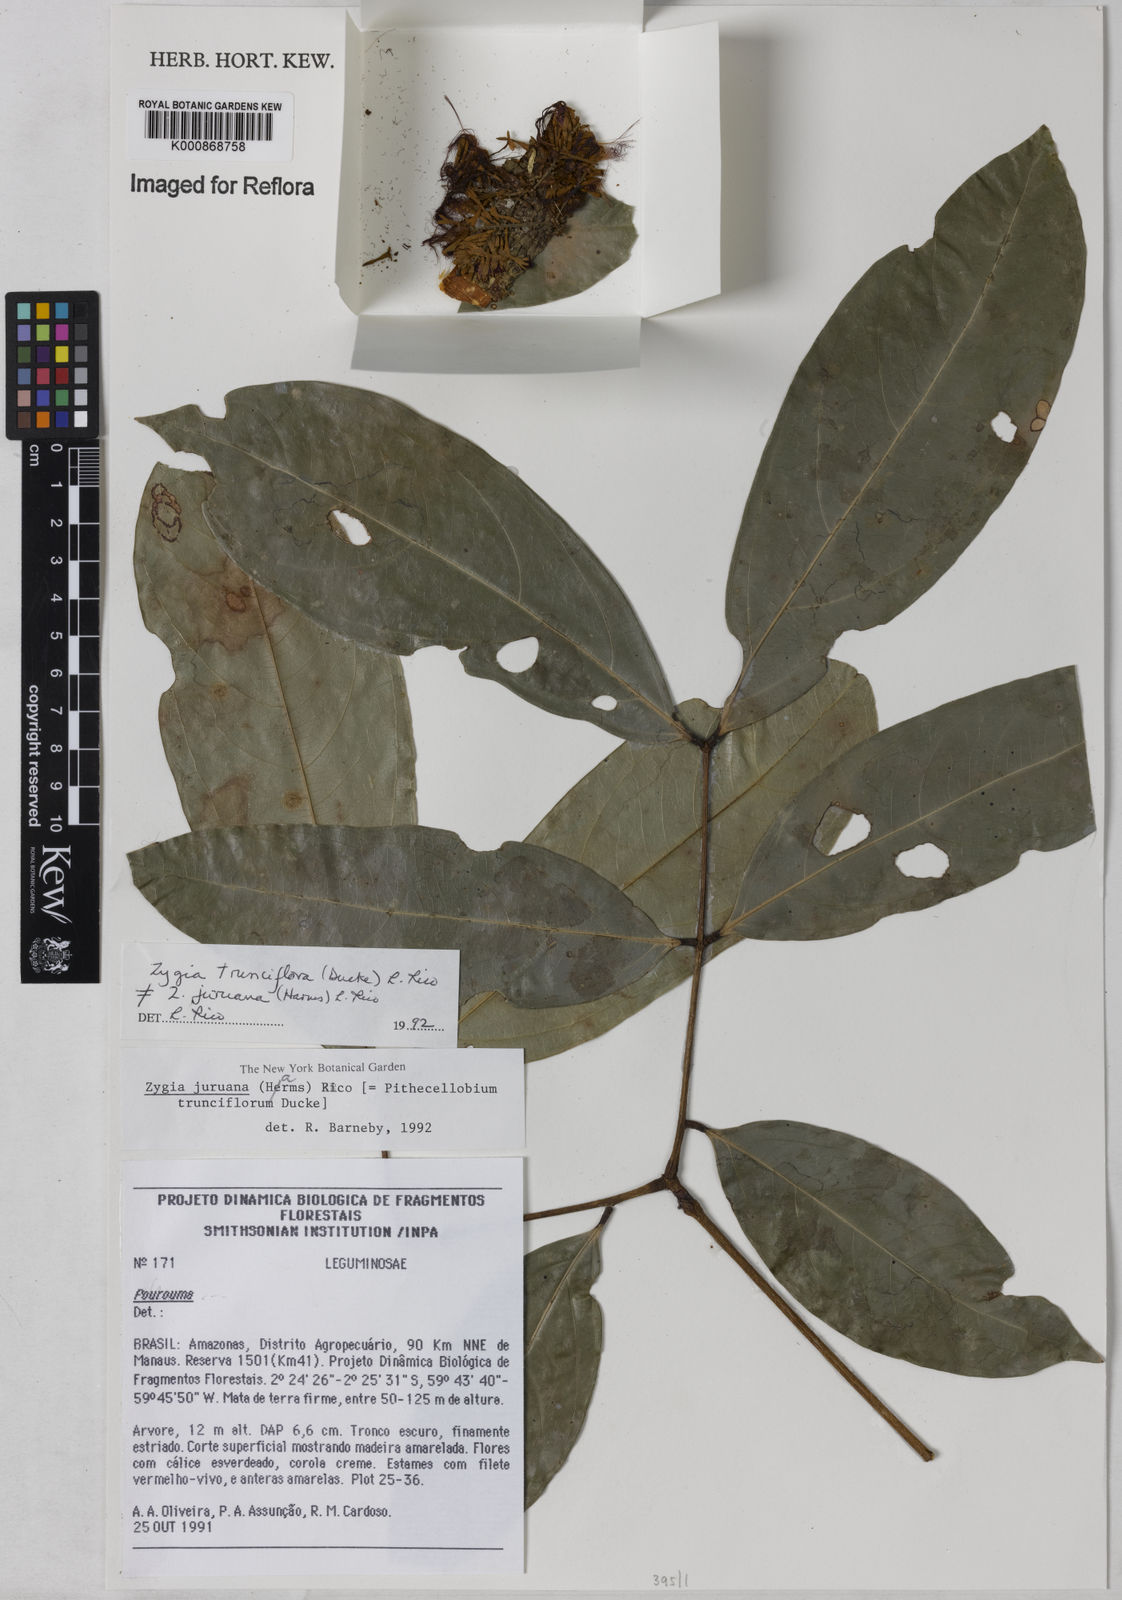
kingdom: Plantae
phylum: Tracheophyta
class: Magnoliopsida
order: Fabales
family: Fabaceae
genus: Zygia
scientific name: Zygia trunciflora
